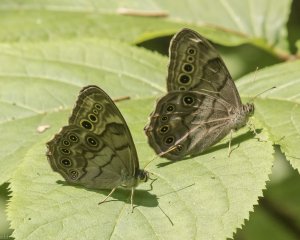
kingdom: Animalia
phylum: Arthropoda
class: Insecta
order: Lepidoptera
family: Nymphalidae
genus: Lethe
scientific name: Lethe anthedon
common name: Northern Pearly-Eye
